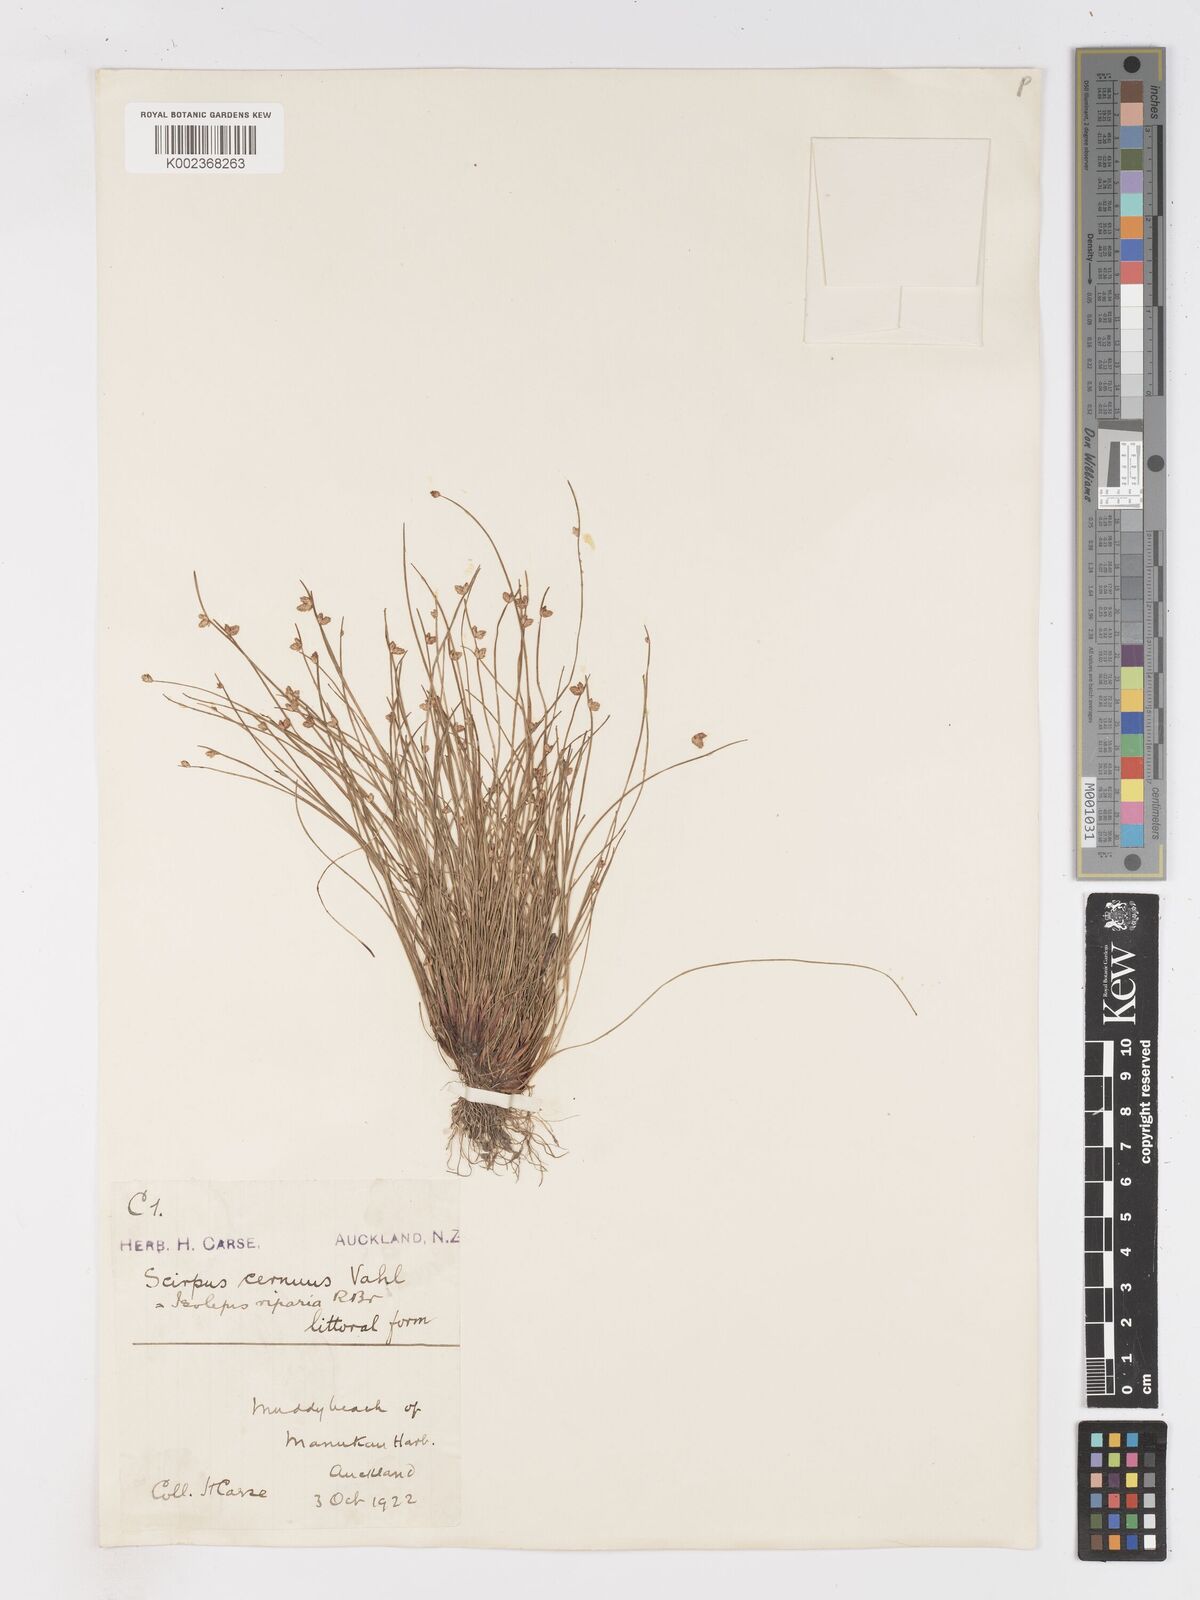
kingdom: Plantae
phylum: Tracheophyta
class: Liliopsida
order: Poales
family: Cyperaceae
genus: Isolepis
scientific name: Isolepis cernua
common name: Slender club-rush
